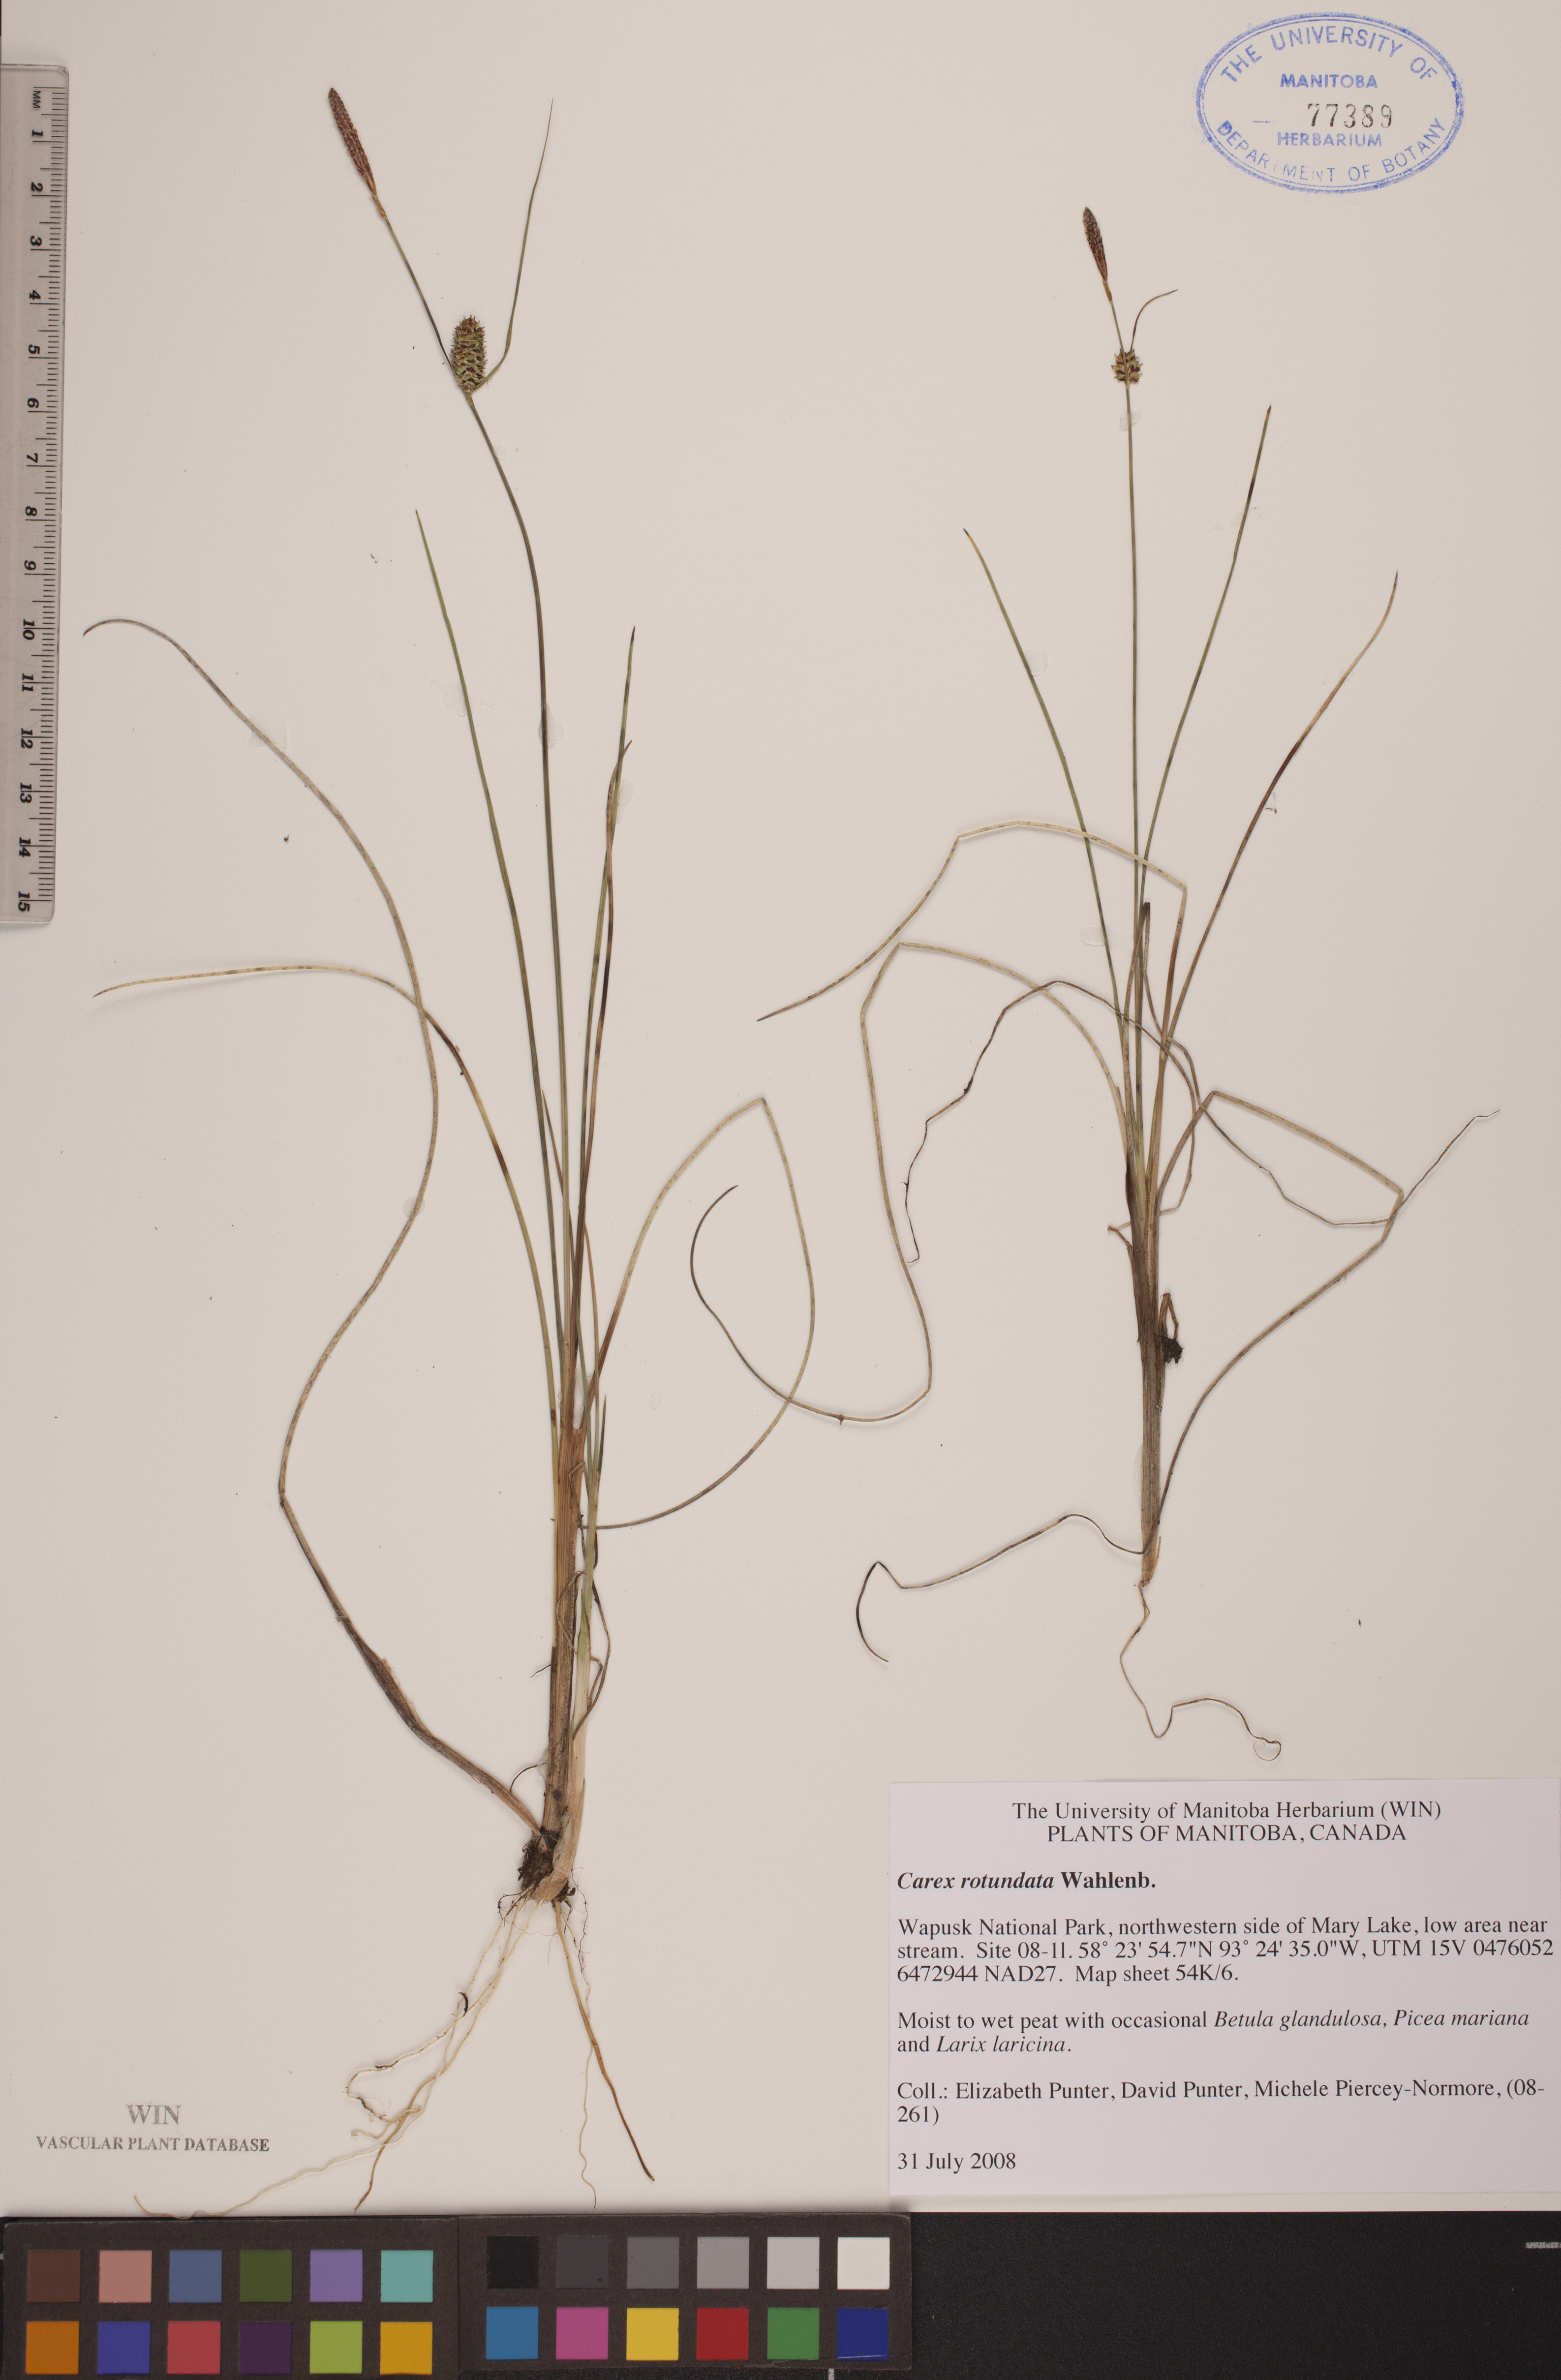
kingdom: Plantae
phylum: Tracheophyta
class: Liliopsida
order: Poales
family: Cyperaceae
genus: Carex
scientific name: Carex rotundata
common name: Round-fruited sedge
